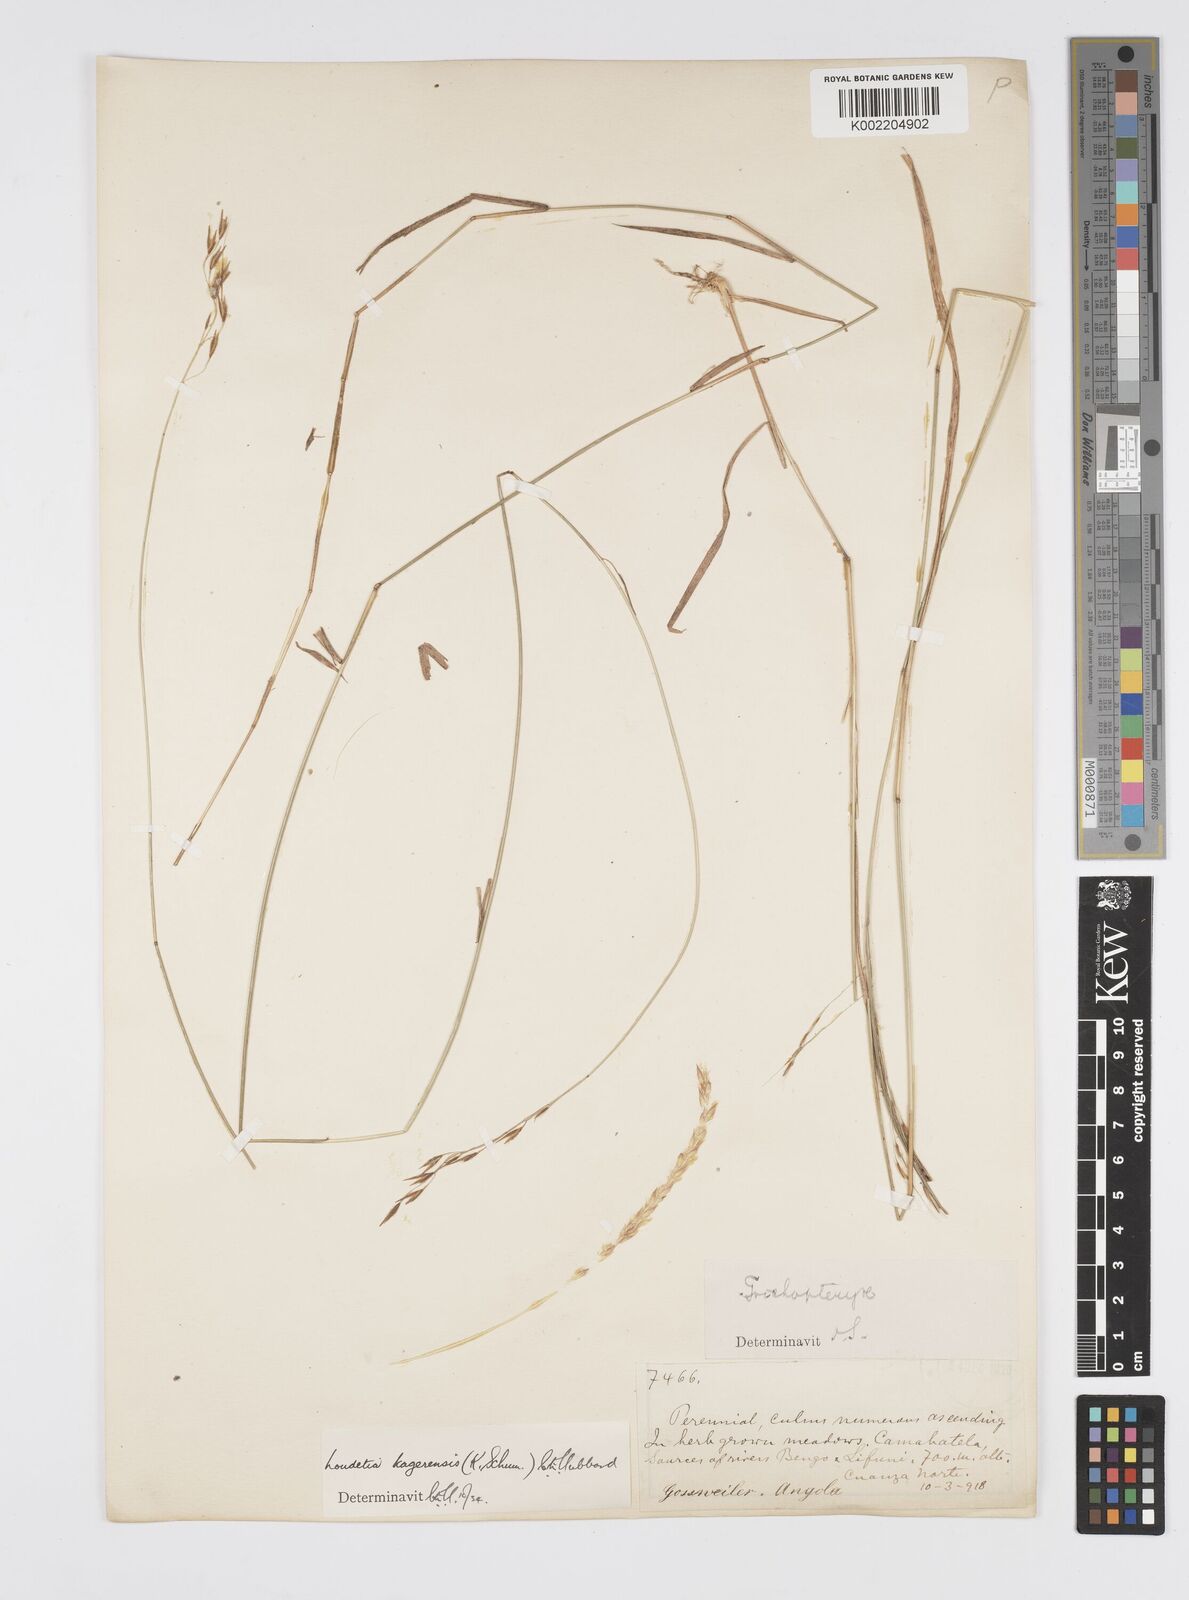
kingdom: Plantae
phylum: Tracheophyta
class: Liliopsida
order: Poales
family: Poaceae
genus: Loudetia
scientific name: Loudetia kagerensis
